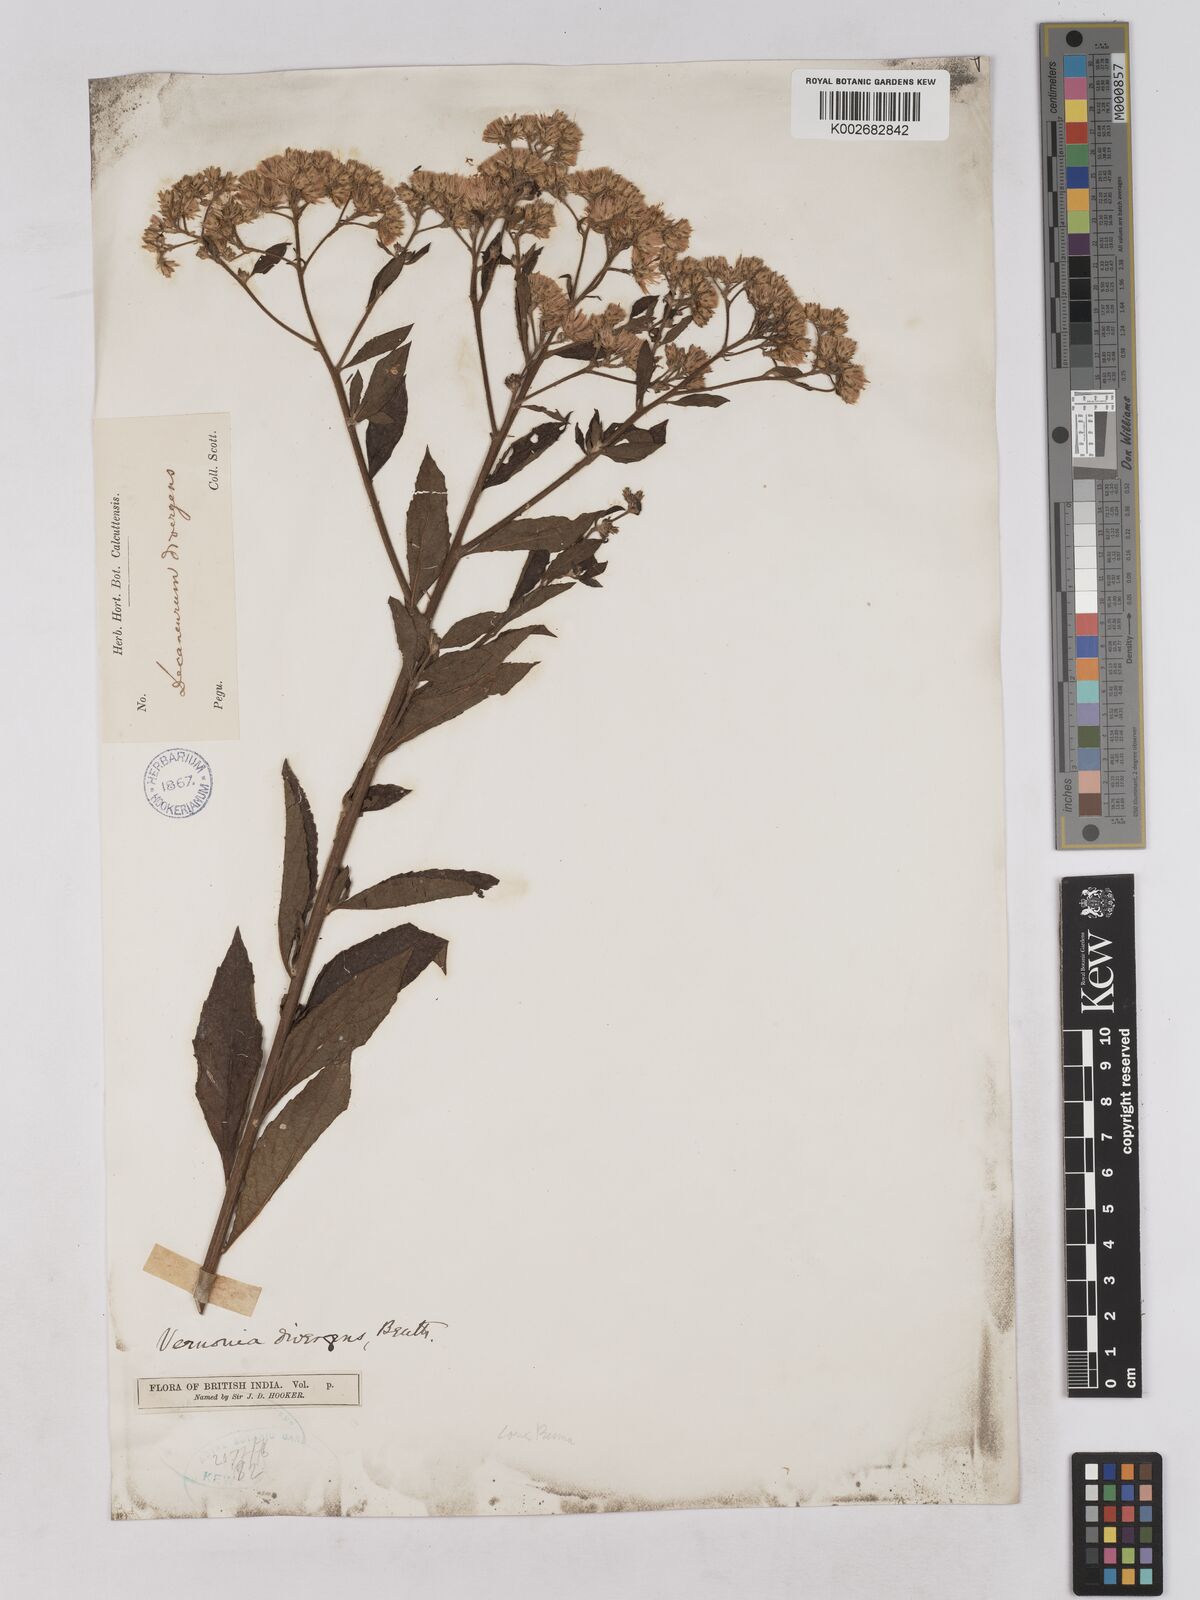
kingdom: Plantae
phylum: Tracheophyta
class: Magnoliopsida
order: Asterales
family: Asteraceae
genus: Acilepis
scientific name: Acilepis divergens
